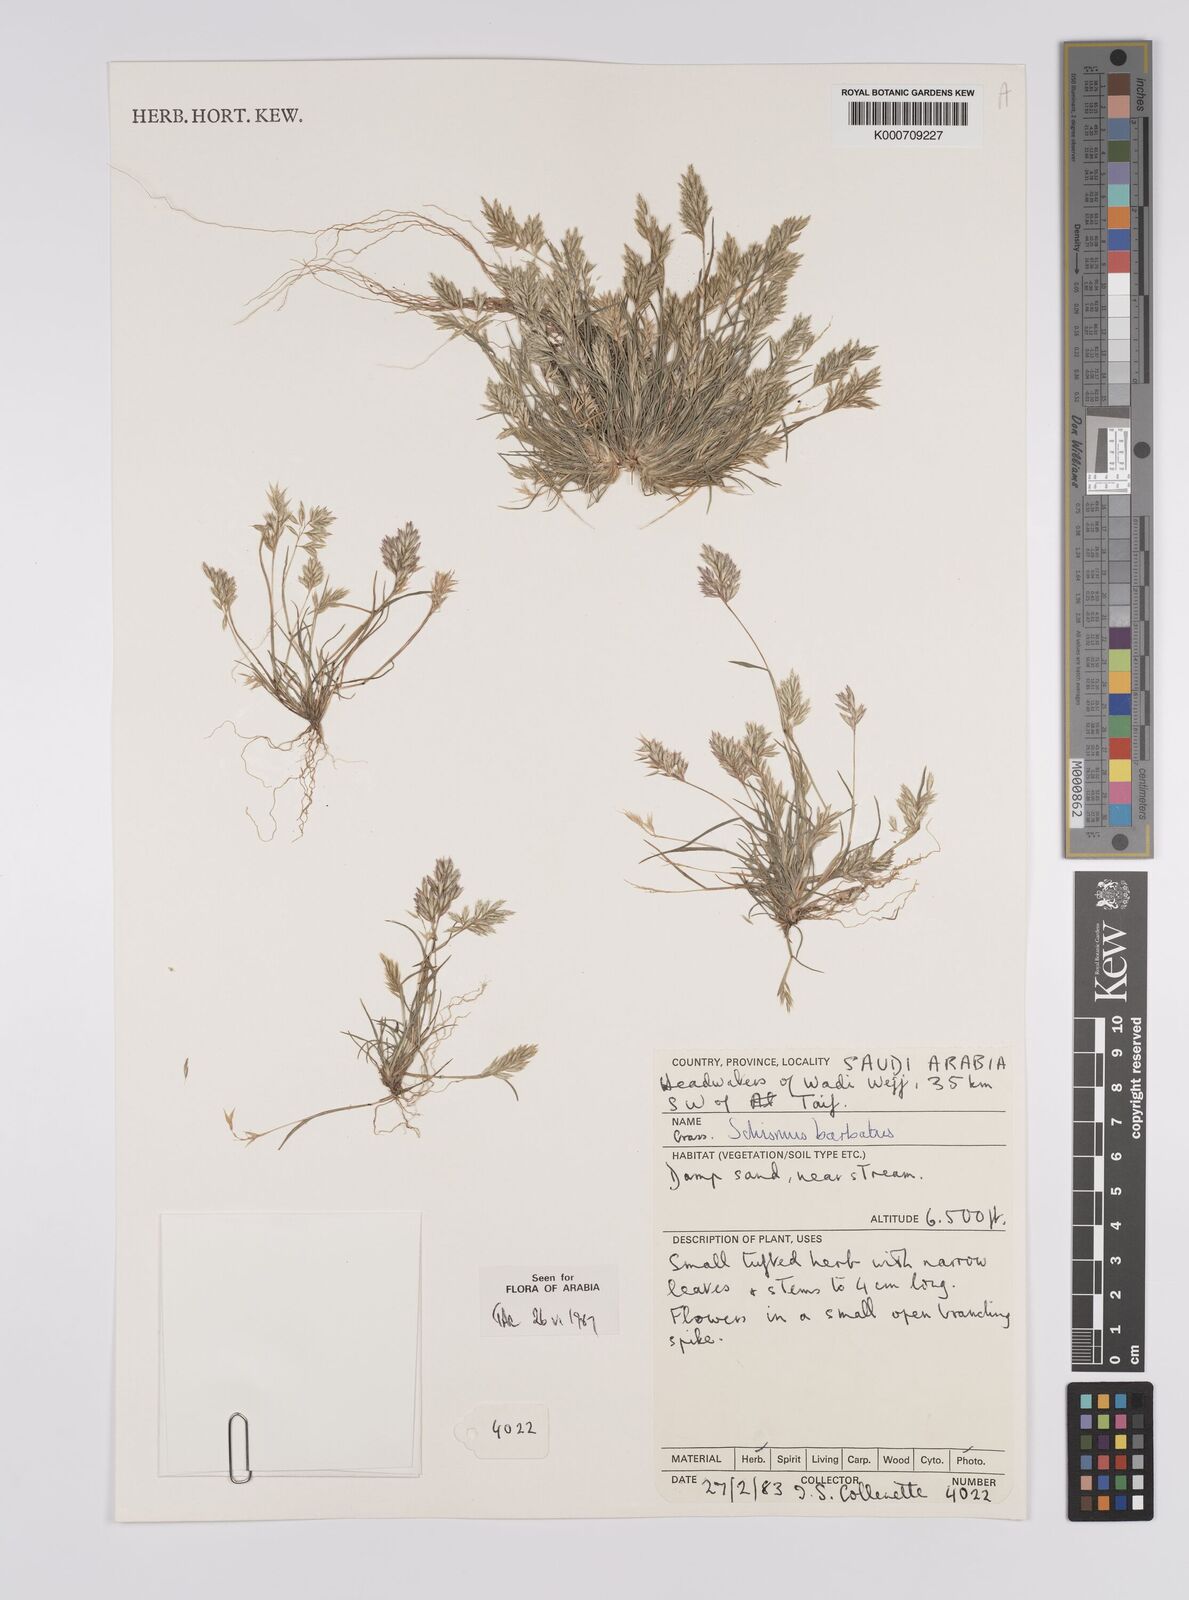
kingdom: Plantae
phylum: Tracheophyta
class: Liliopsida
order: Poales
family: Poaceae
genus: Schismus
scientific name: Schismus barbatus
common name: Kelch-grass
